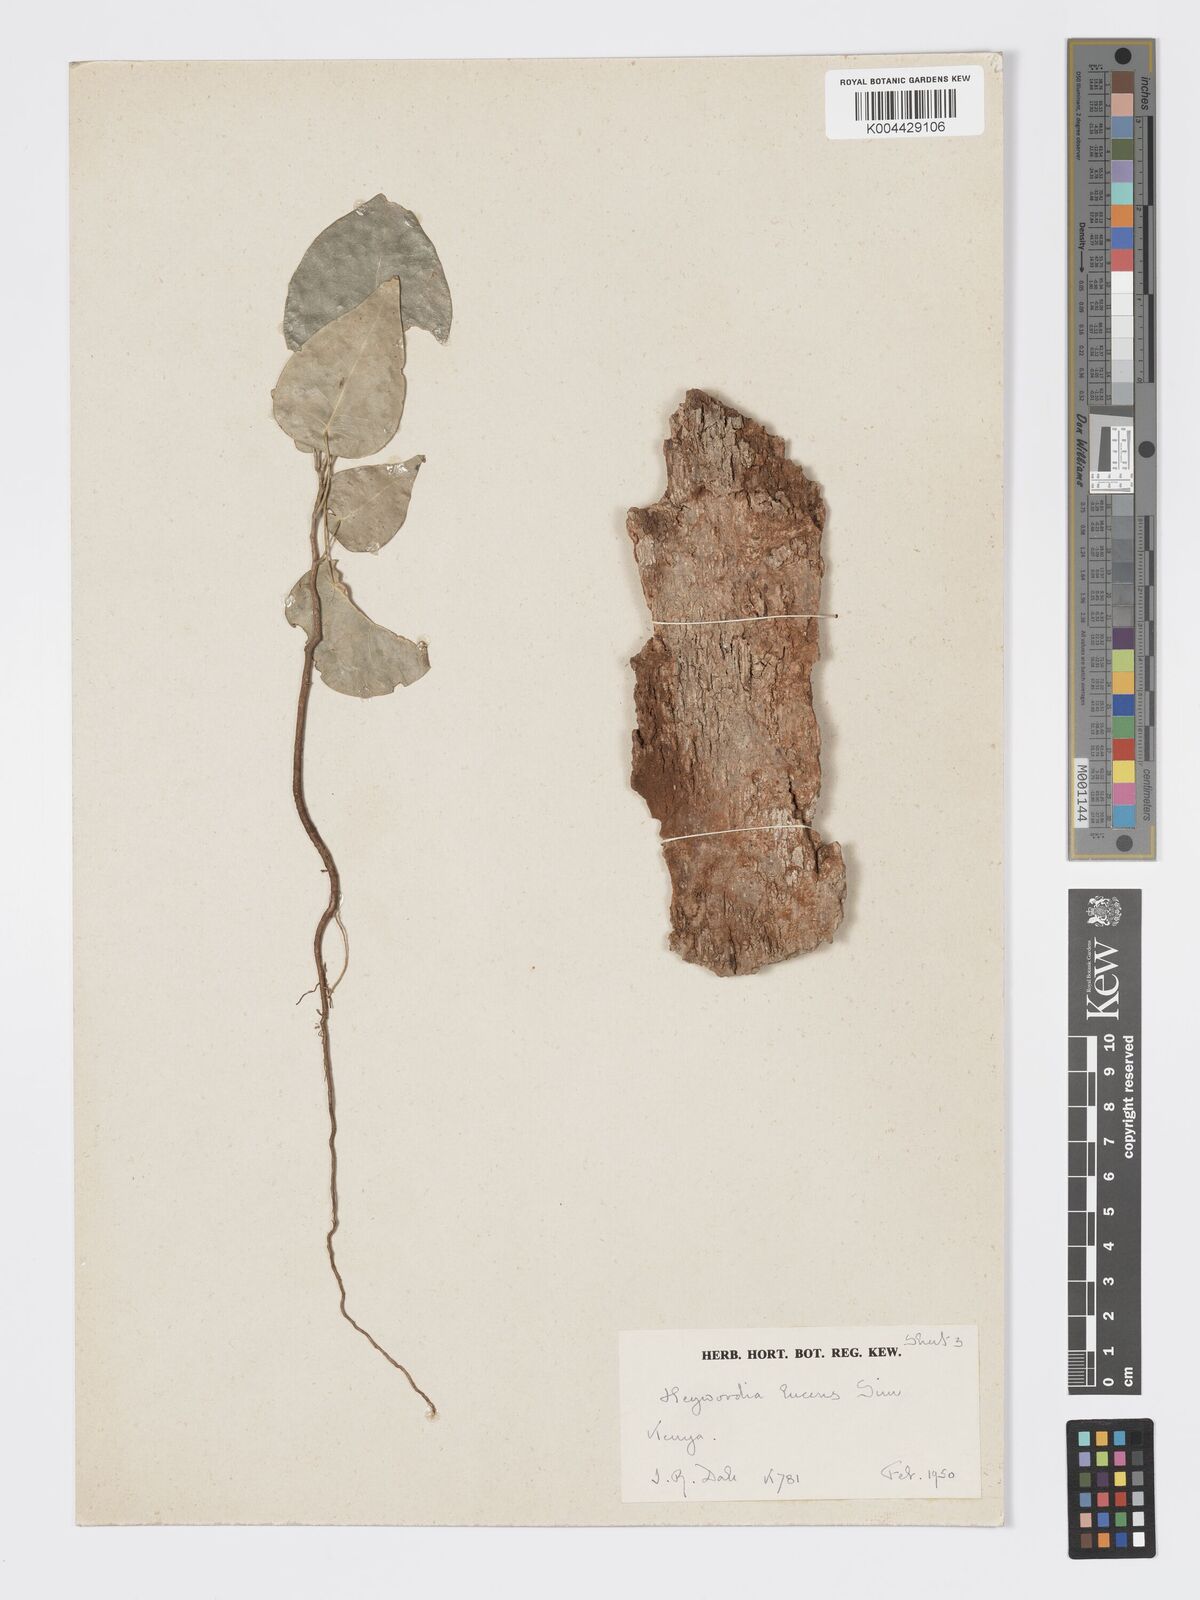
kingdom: Plantae
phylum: Tracheophyta
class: Magnoliopsida
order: Malpighiales
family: Phyllanthaceae
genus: Heywoodia
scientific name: Heywoodia lucens
